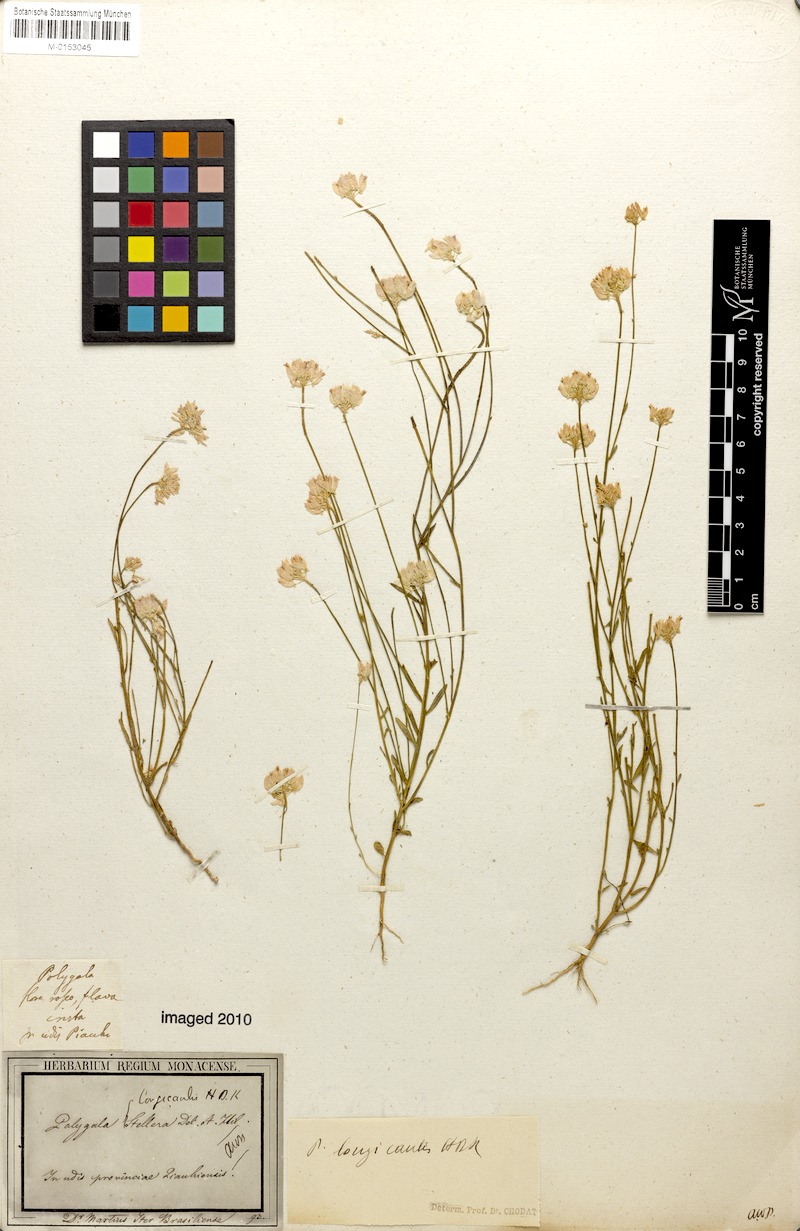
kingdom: Plantae
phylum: Tracheophyta
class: Magnoliopsida
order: Fabales
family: Polygalaceae
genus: Polygala
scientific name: Polygala longicaulis
